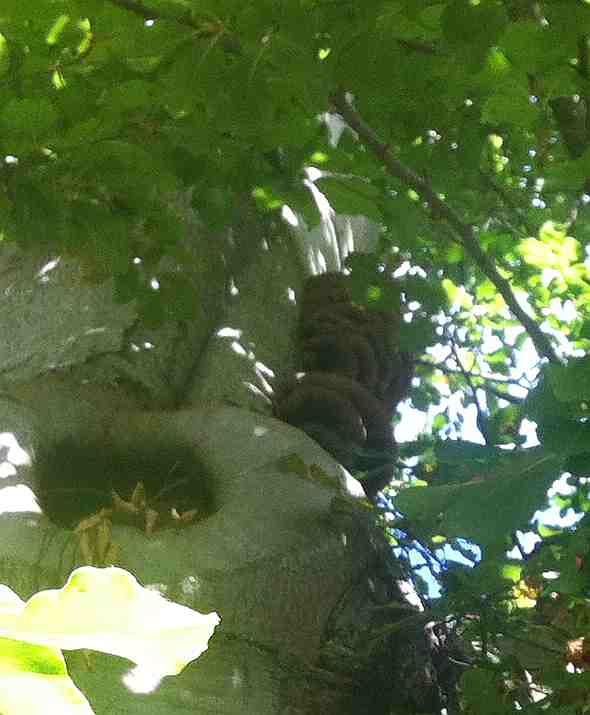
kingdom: Fungi
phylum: Basidiomycota
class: Agaricomycetes
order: Hymenochaetales
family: Hymenochaetaceae
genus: Inonotus
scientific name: Inonotus cuticularis
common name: kroghåret spejlporesvamp
